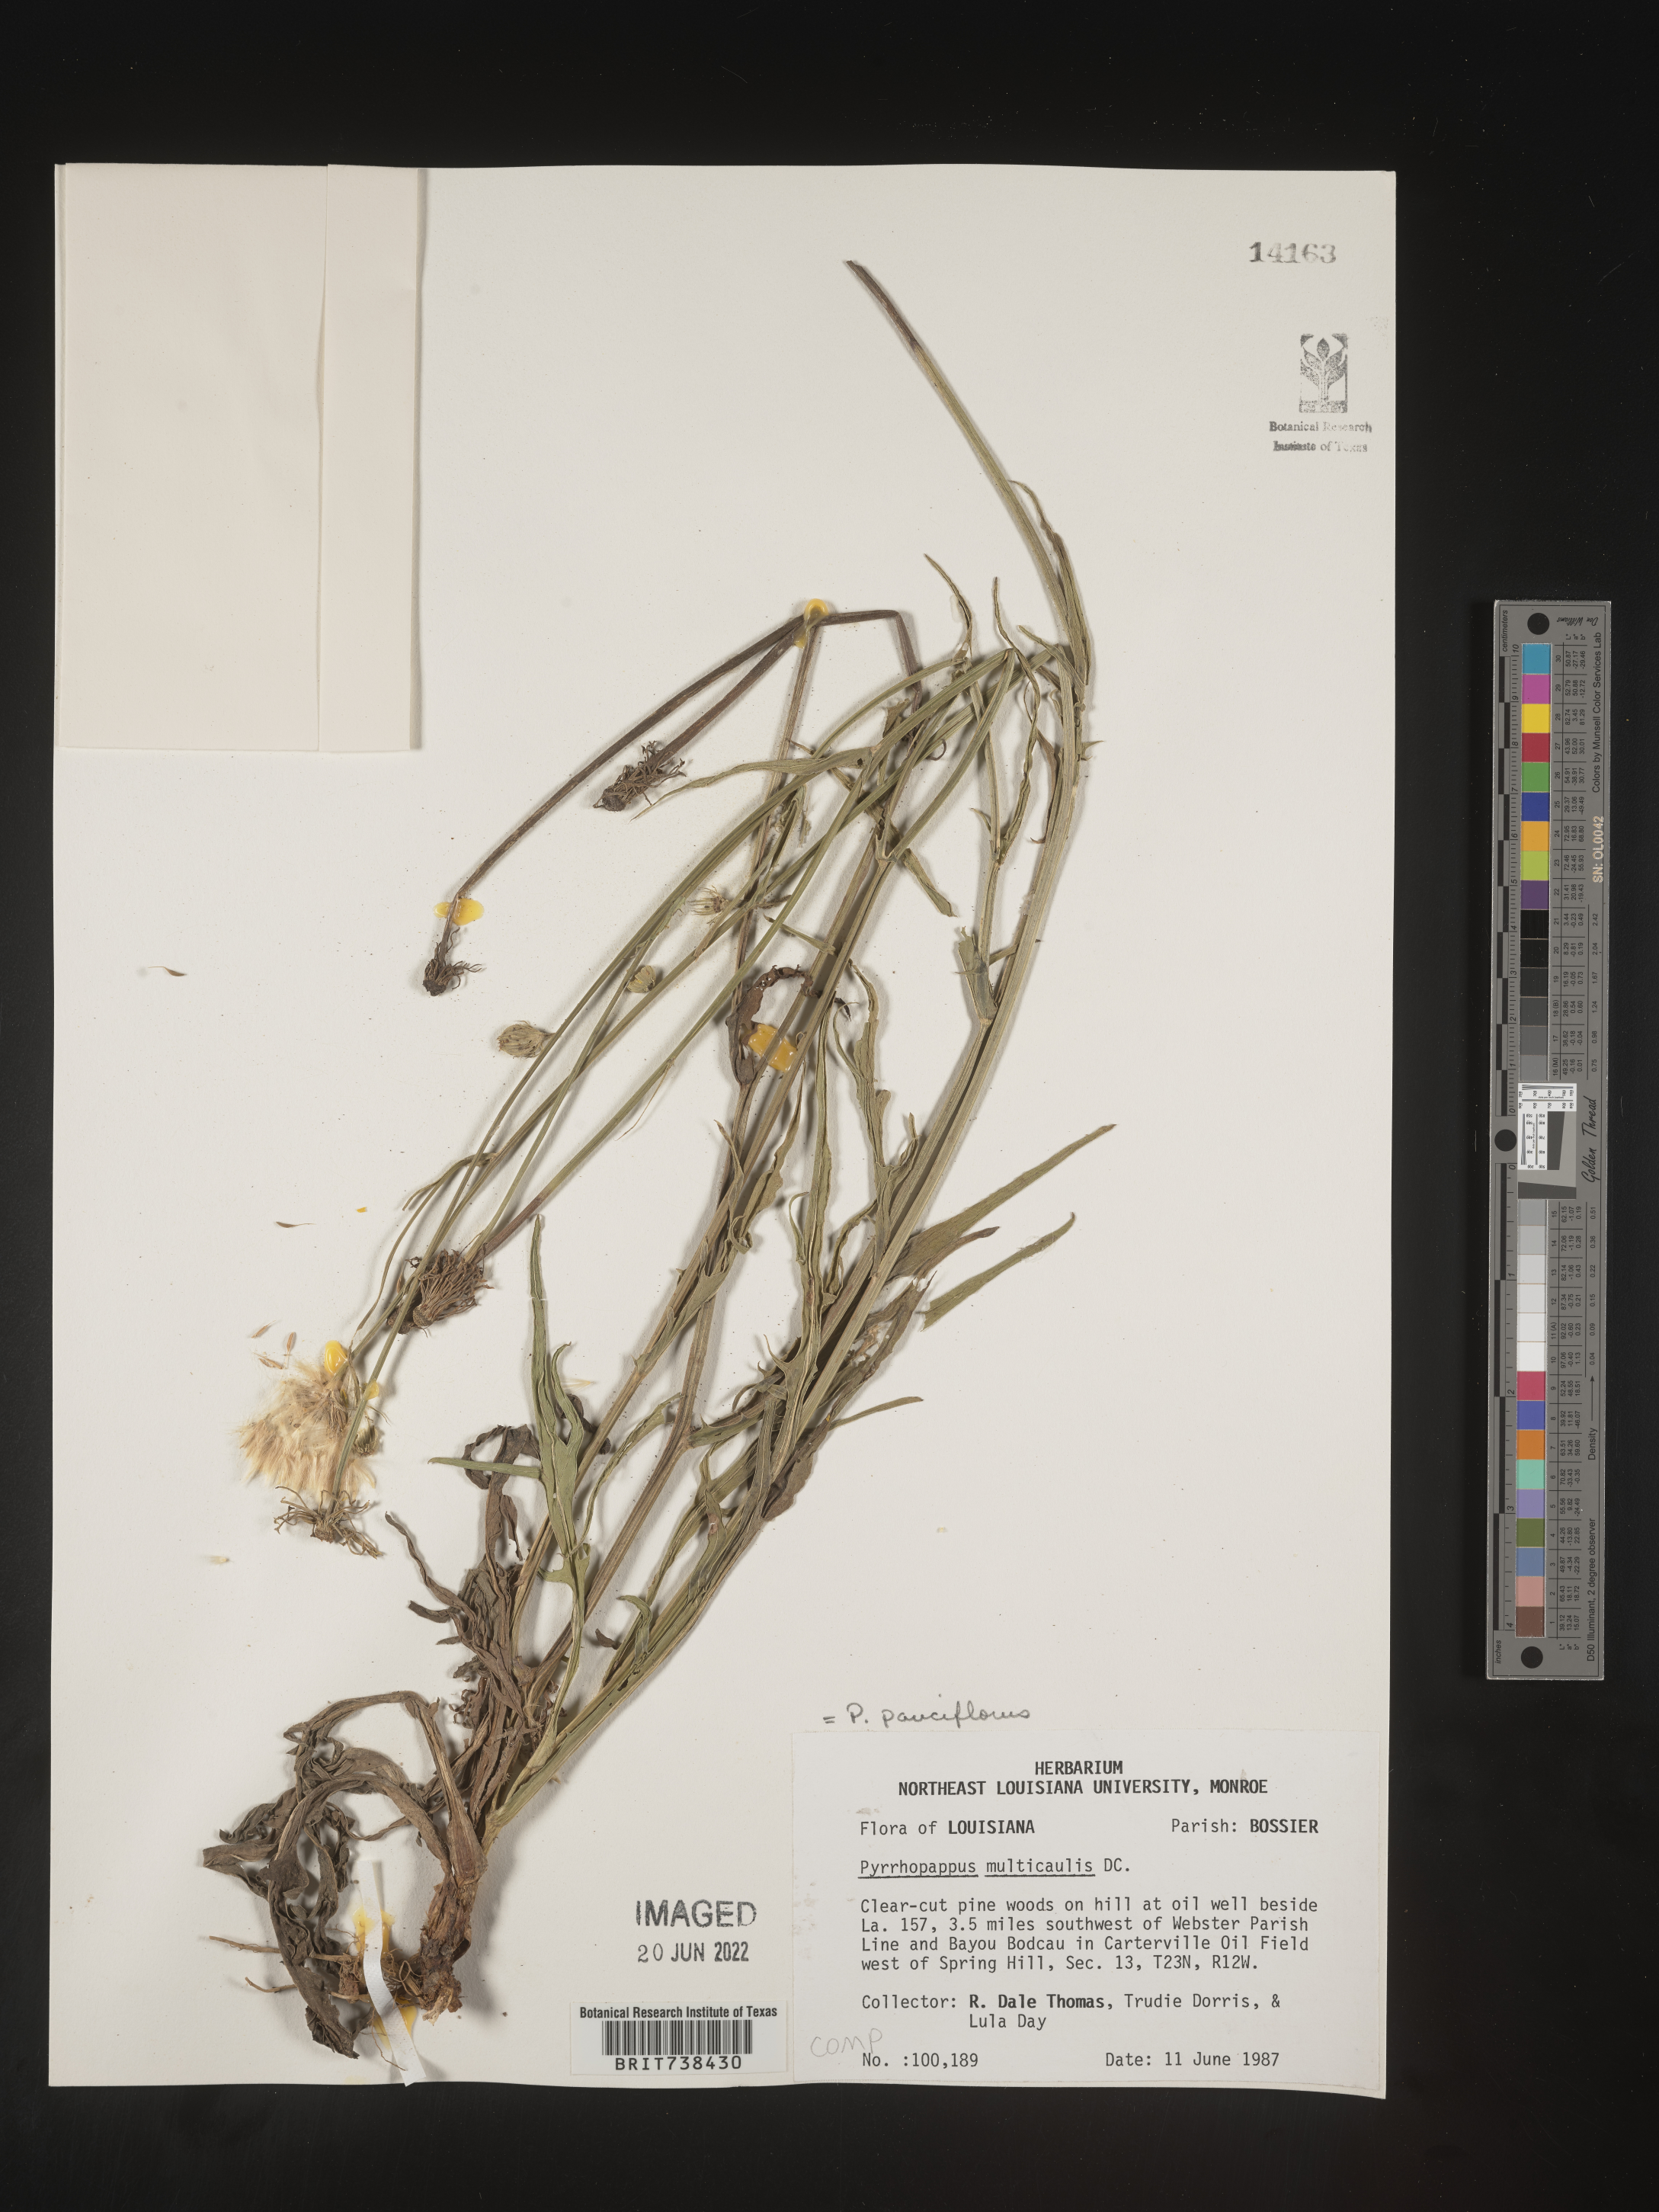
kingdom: Plantae
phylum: Tracheophyta
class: Magnoliopsida
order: Asterales
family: Asteraceae
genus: Pyrrhopappus
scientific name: Pyrrhopappus pauciflorus
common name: Texas false dandelion
